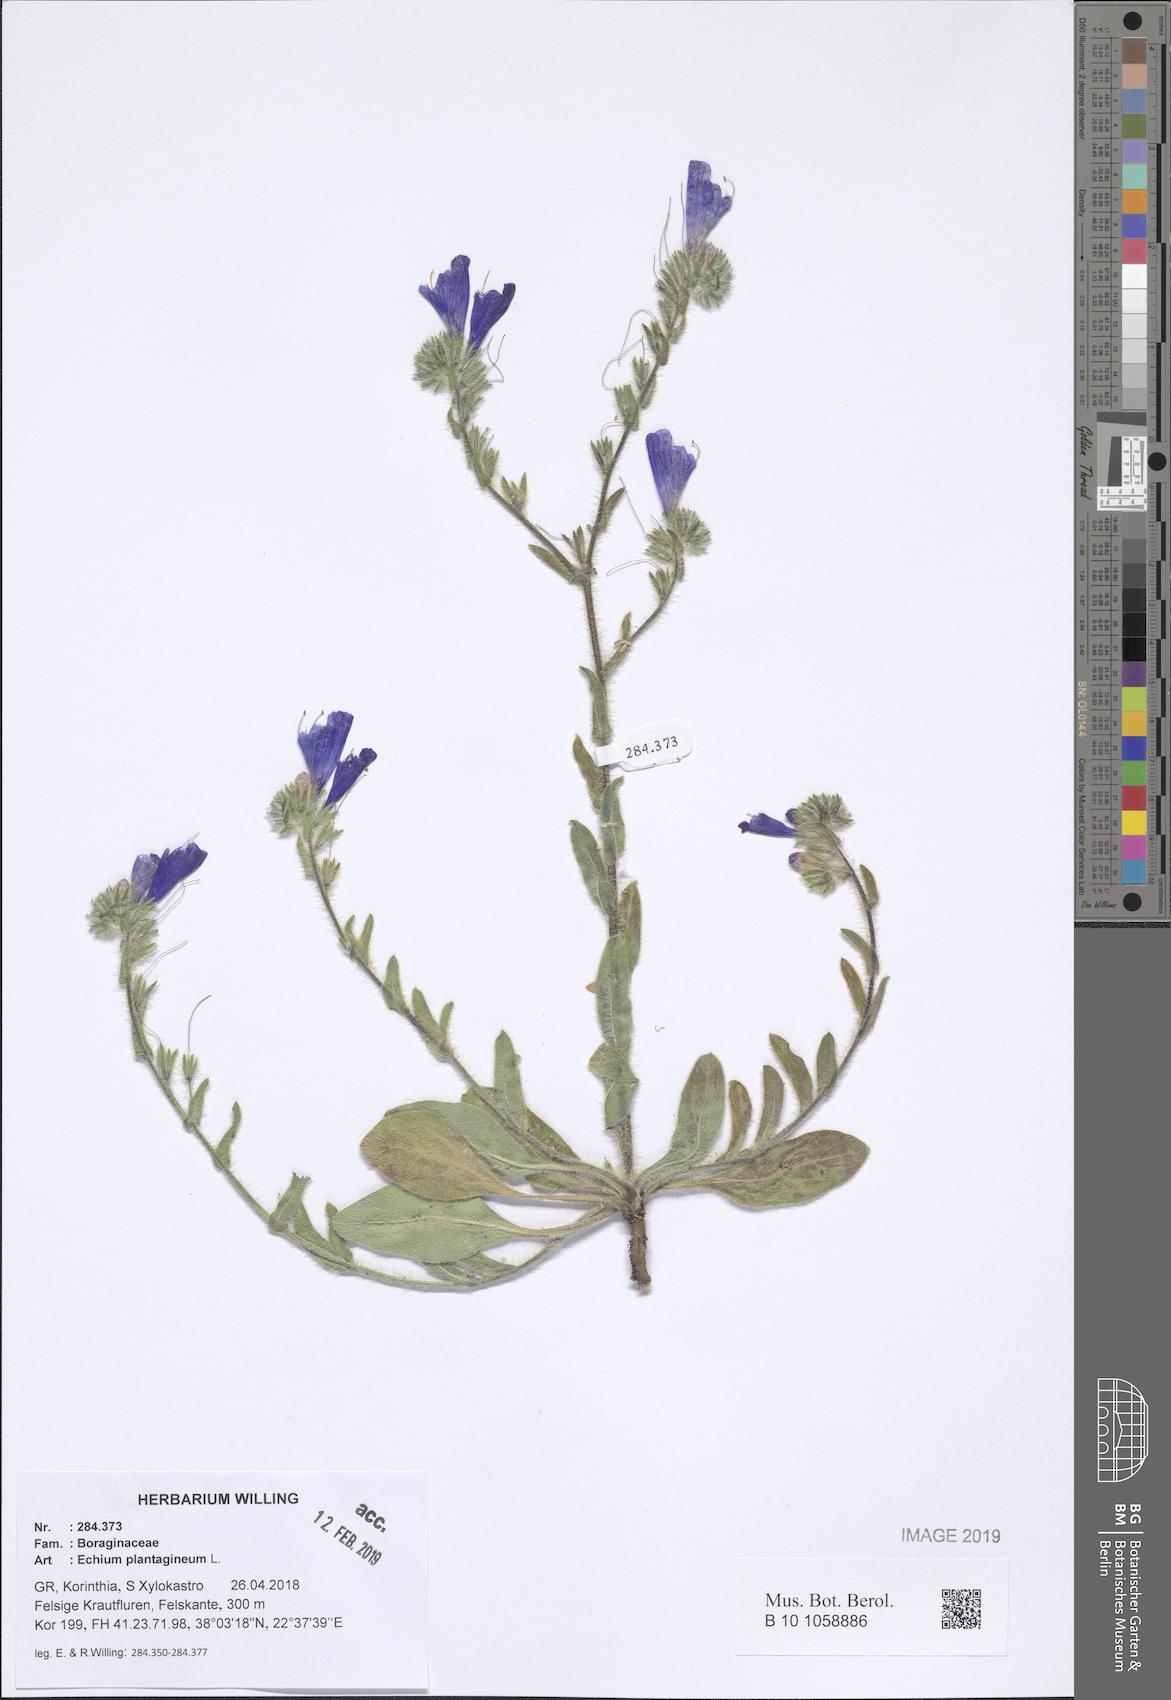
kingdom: Plantae
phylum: Tracheophyta
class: Magnoliopsida
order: Boraginales
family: Boraginaceae
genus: Echium
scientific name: Echium plantagineum
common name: Purple viper's-bugloss
